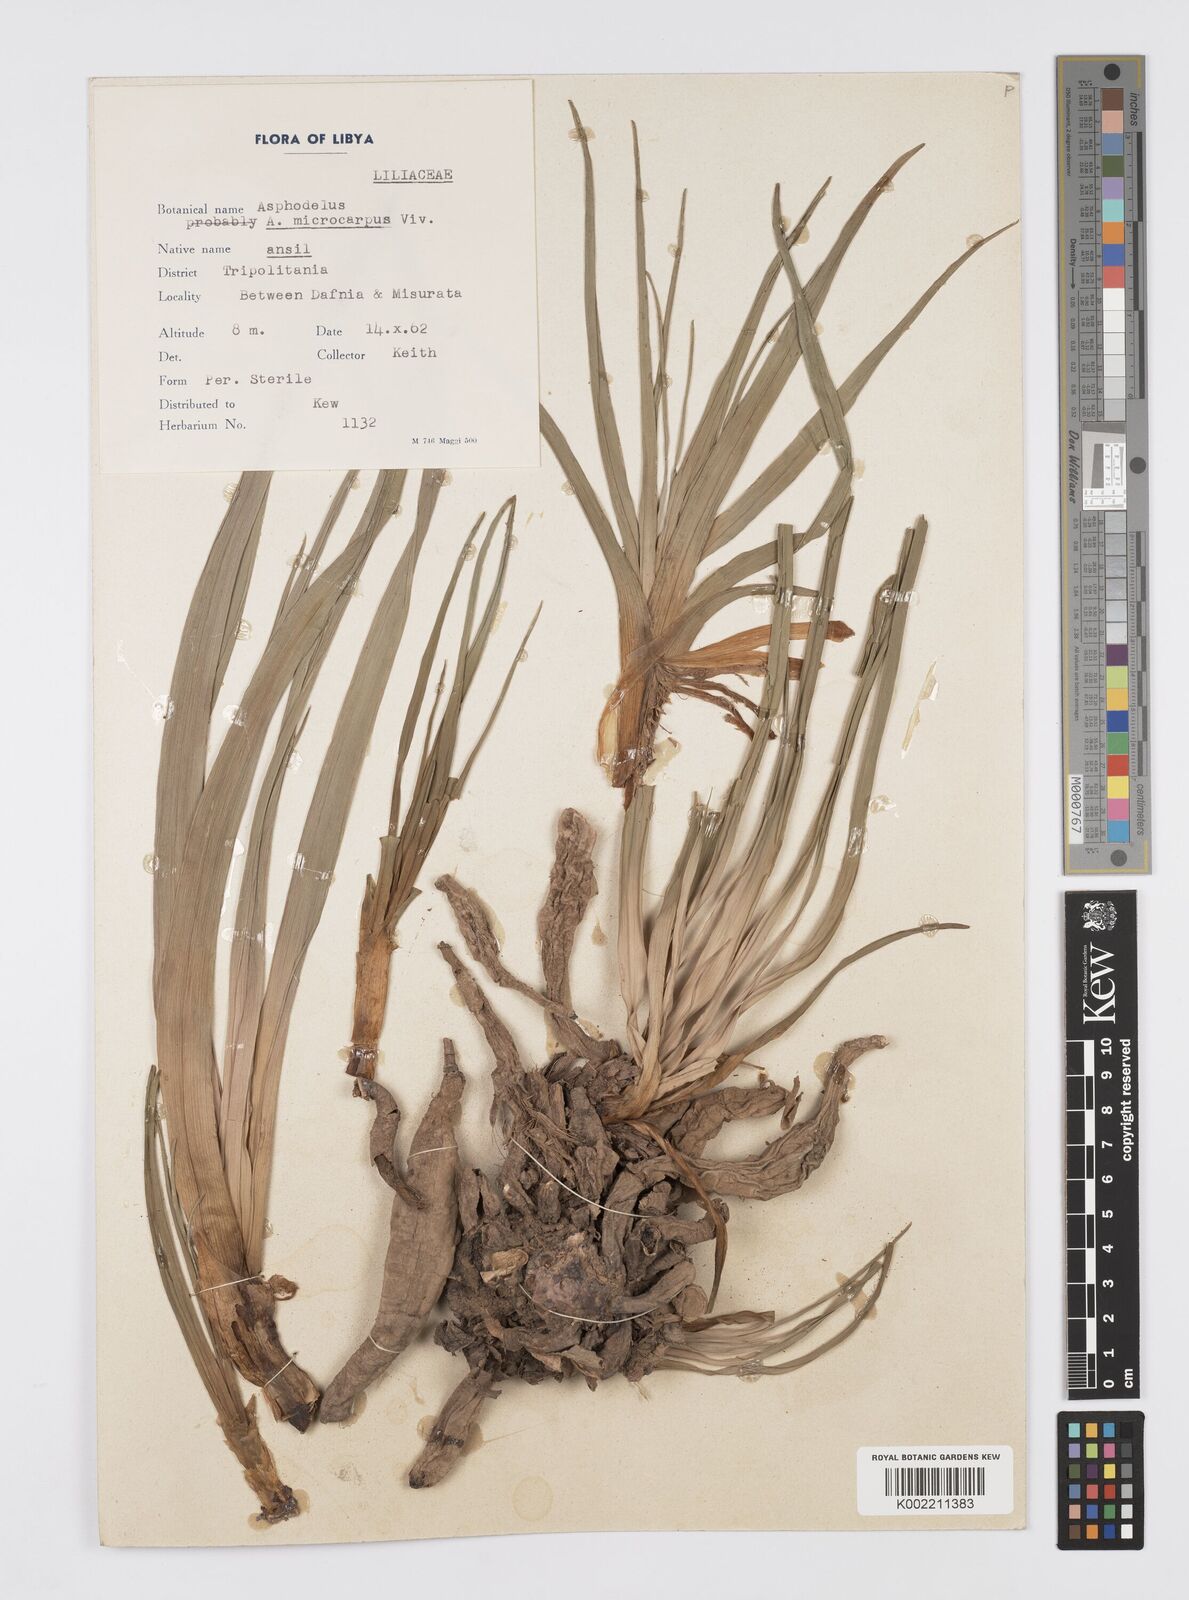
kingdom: Plantae
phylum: Tracheophyta
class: Liliopsida
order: Asparagales
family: Asphodelaceae
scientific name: Asphodelaceae
